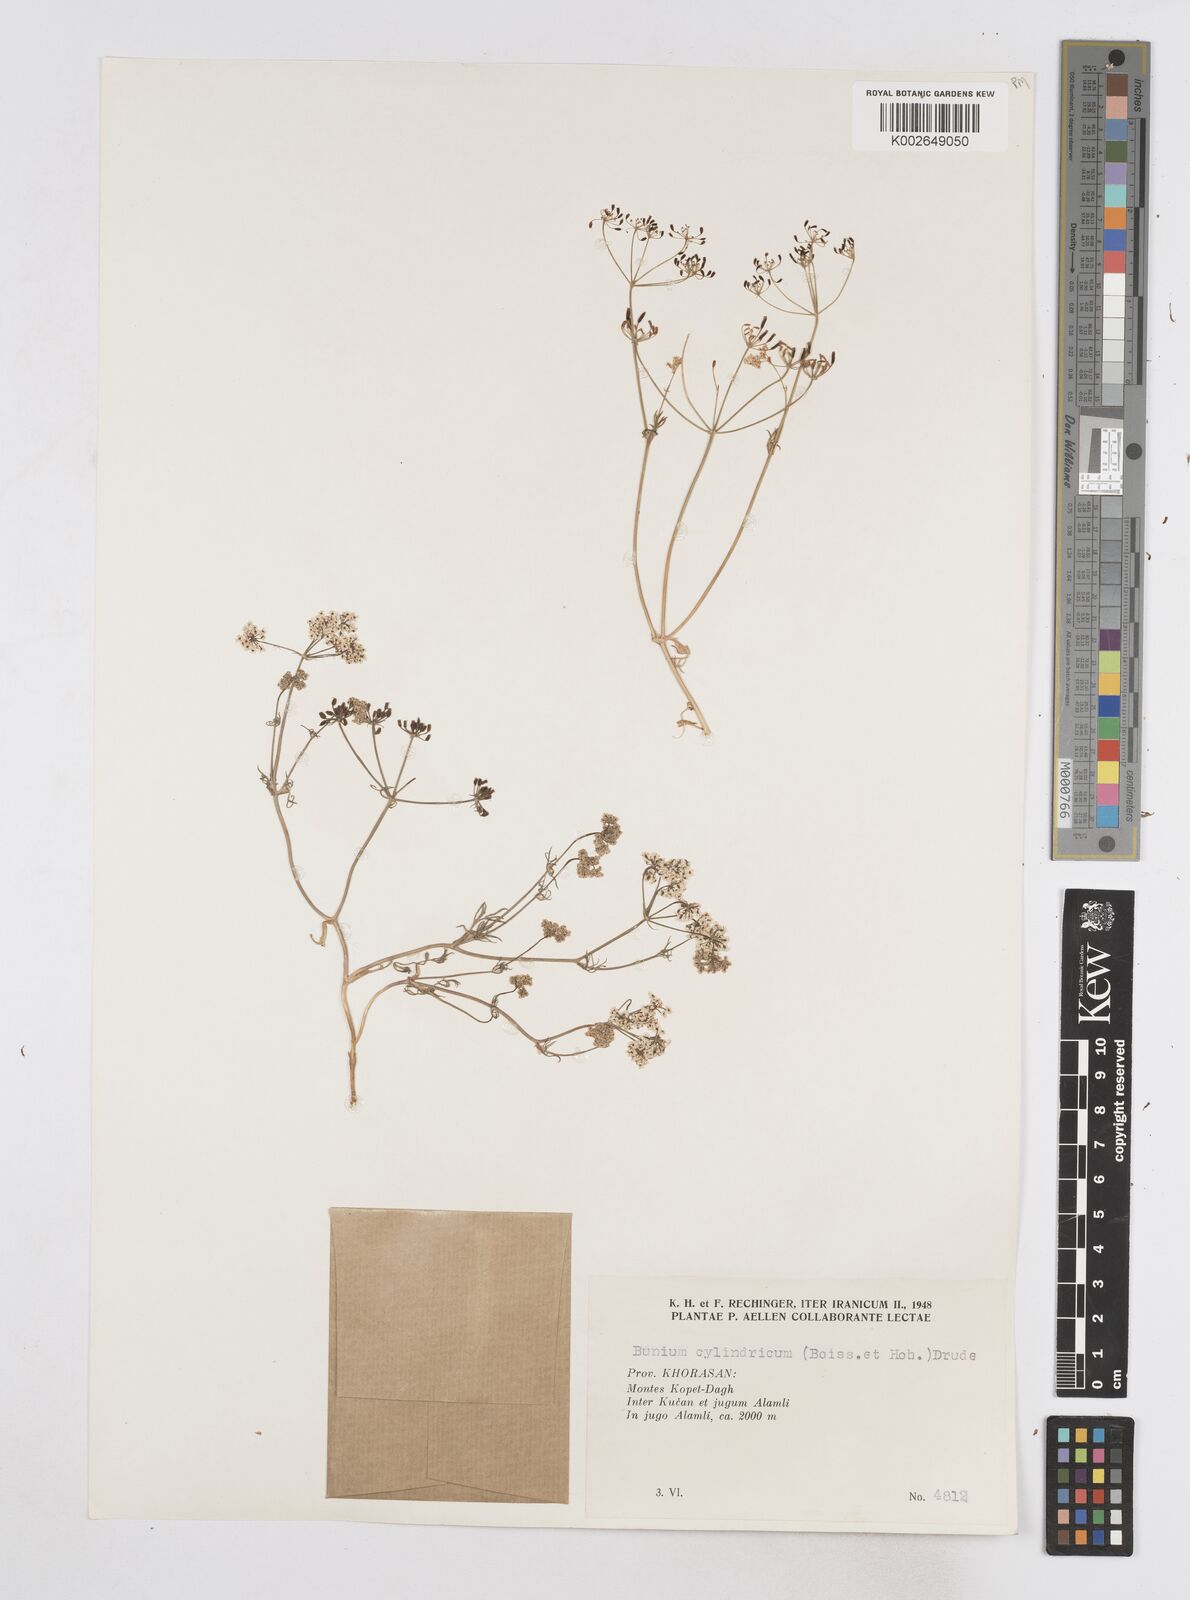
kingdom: Plantae
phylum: Tracheophyta
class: Magnoliopsida
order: Apiales
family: Apiaceae
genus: Elwendia
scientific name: Elwendia cylindrica
